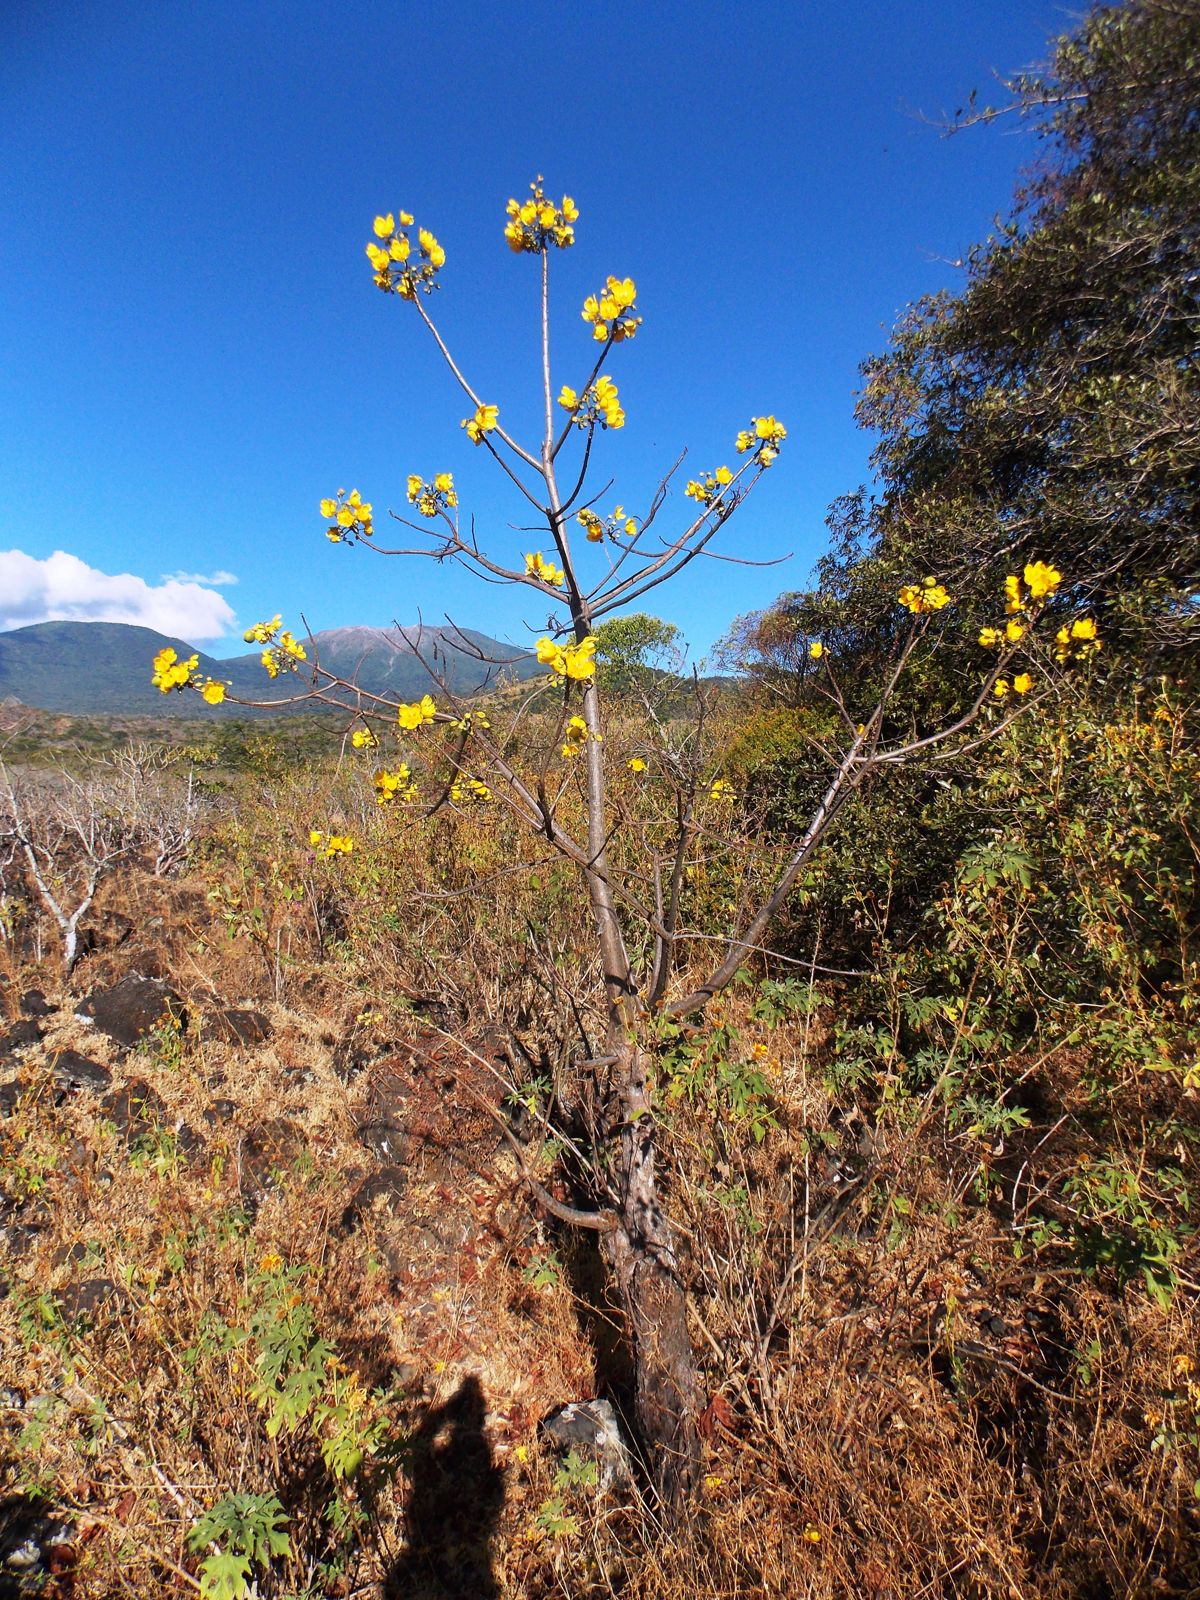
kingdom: Plantae
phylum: Tracheophyta
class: Magnoliopsida
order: Malvales
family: Cochlospermaceae
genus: Cochlospermum
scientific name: Cochlospermum vitifolium
